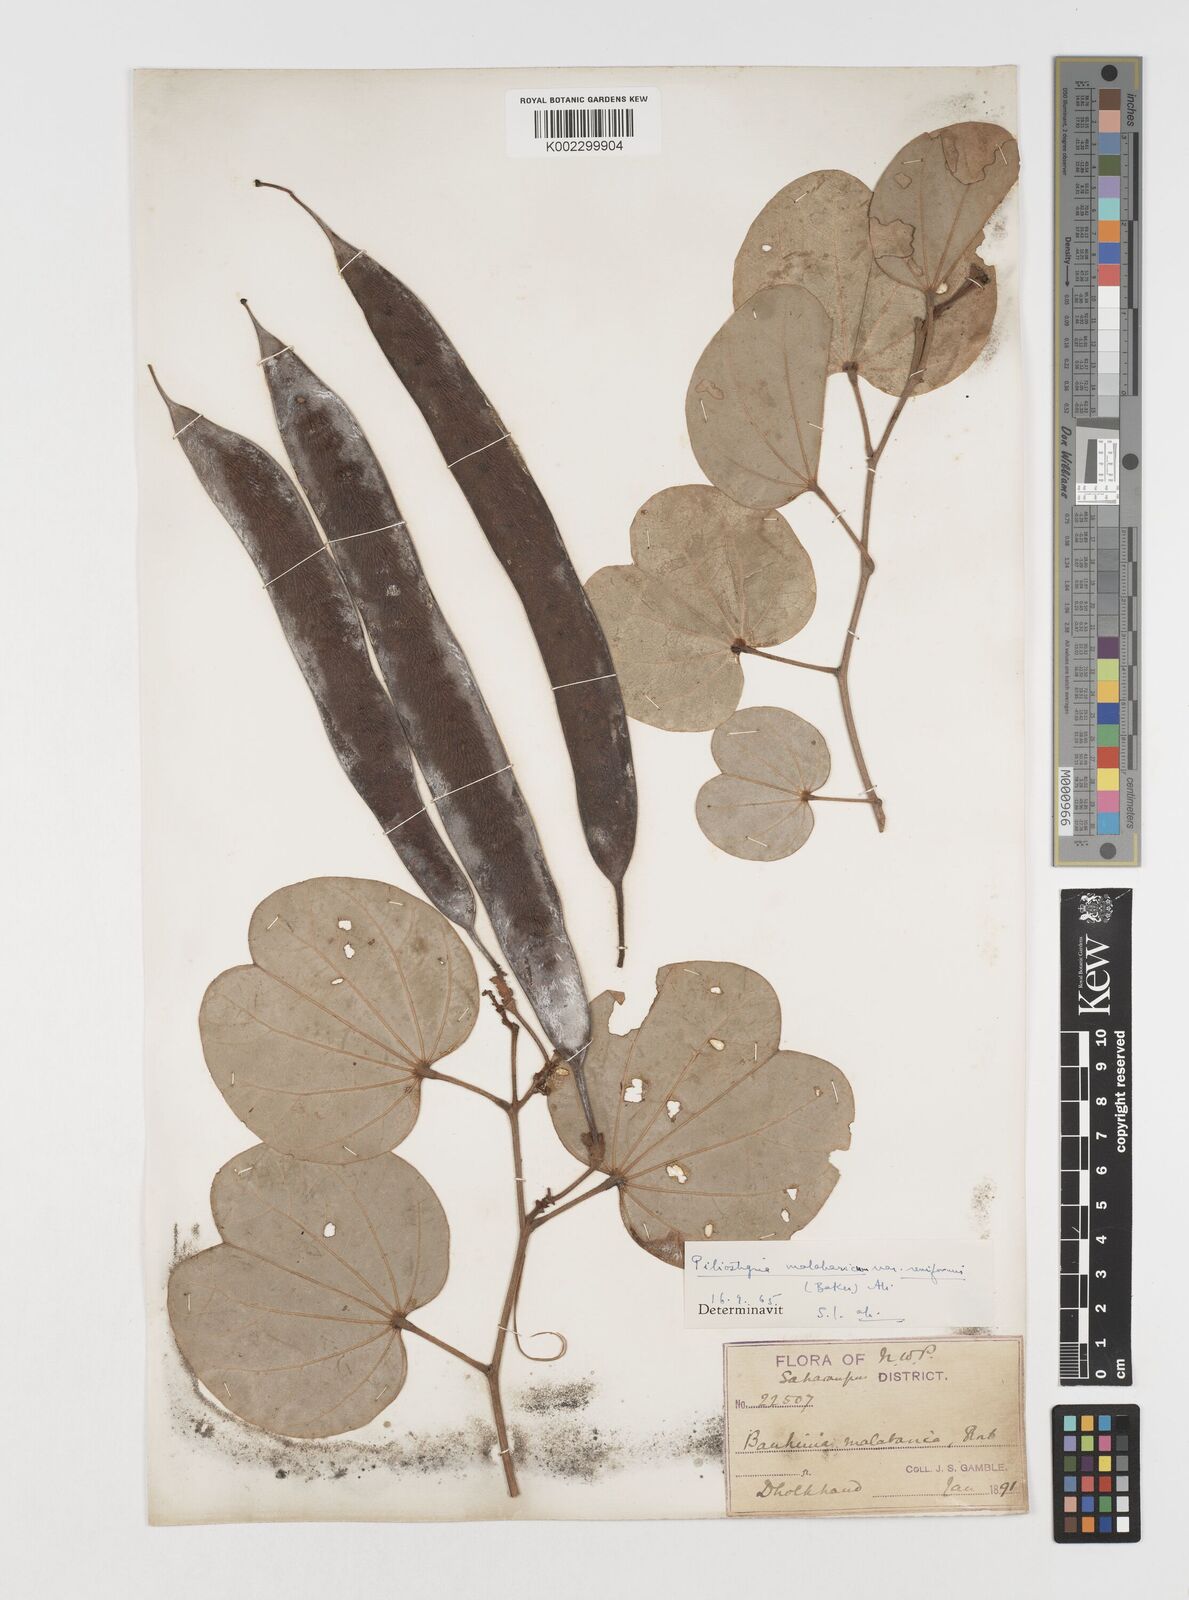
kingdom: Plantae
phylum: Tracheophyta
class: Magnoliopsida
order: Fabales
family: Fabaceae
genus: Piliostigma
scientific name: Piliostigma malabaricum
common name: Malabar bauhinia
